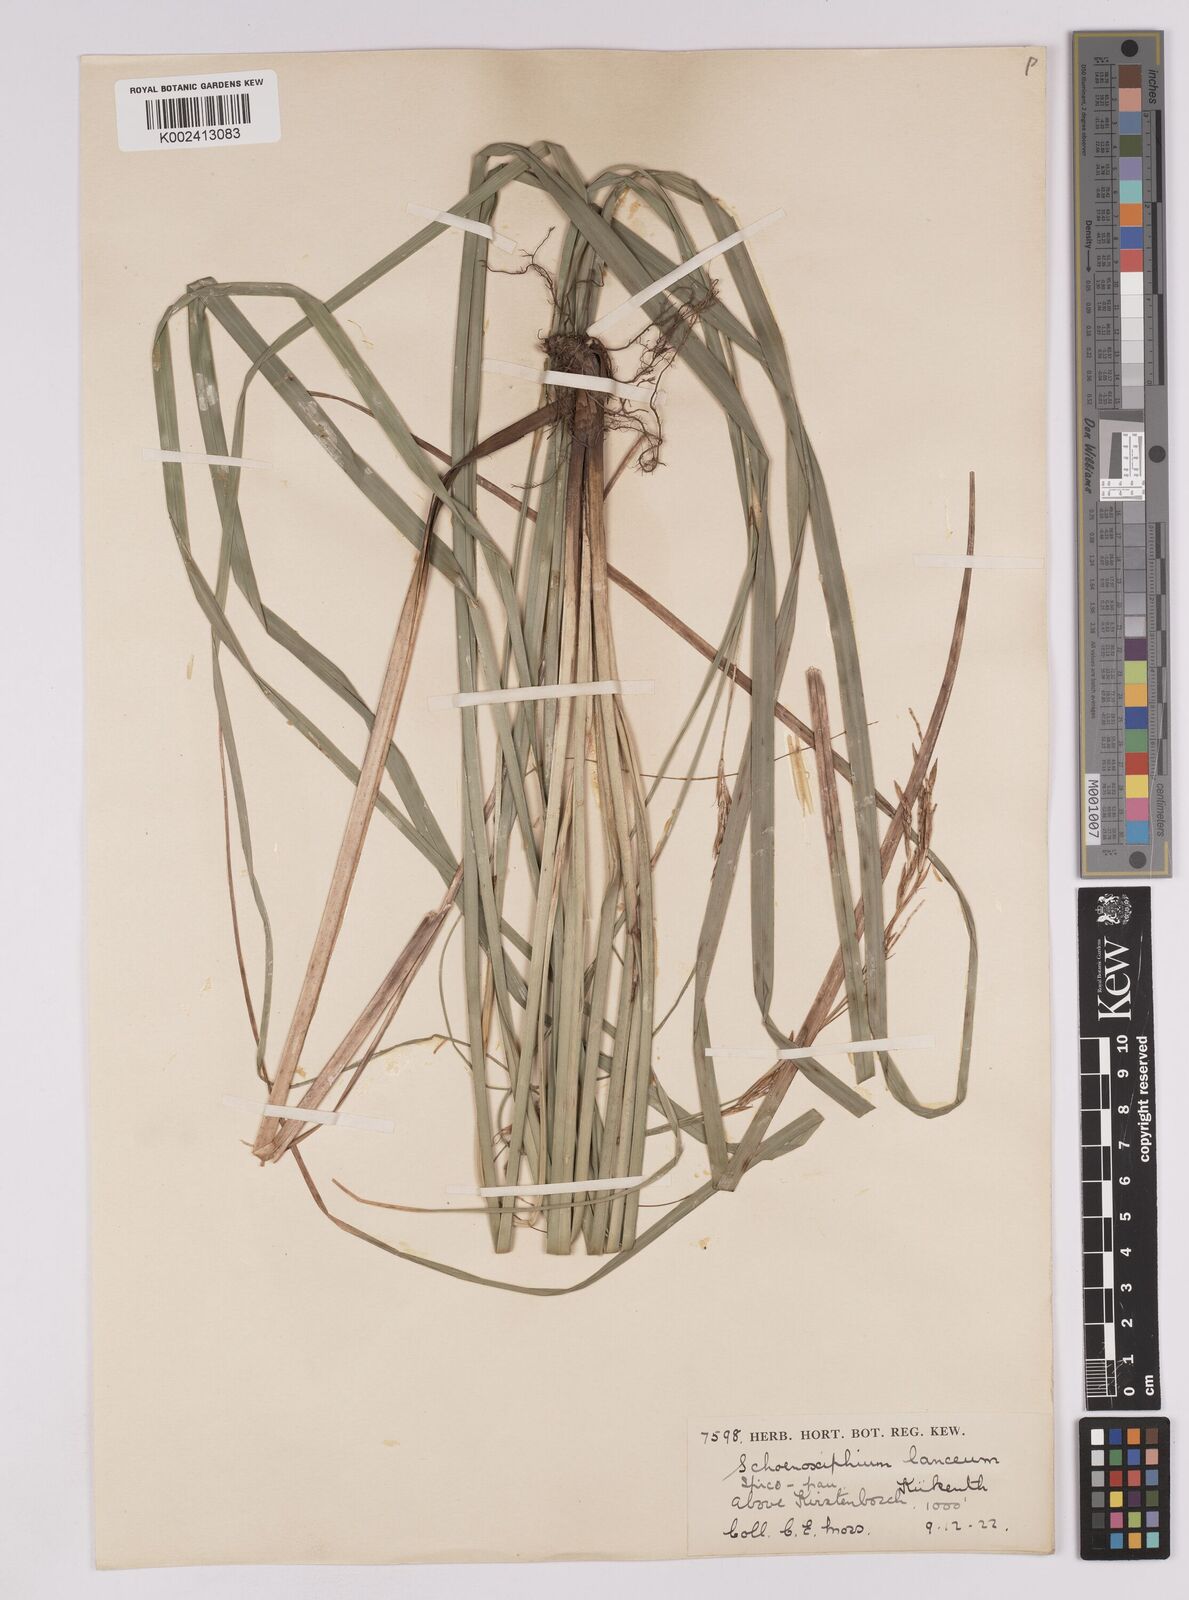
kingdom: Plantae
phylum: Tracheophyta
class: Liliopsida
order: Poales
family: Cyperaceae
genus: Carex
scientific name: Carex lancea
